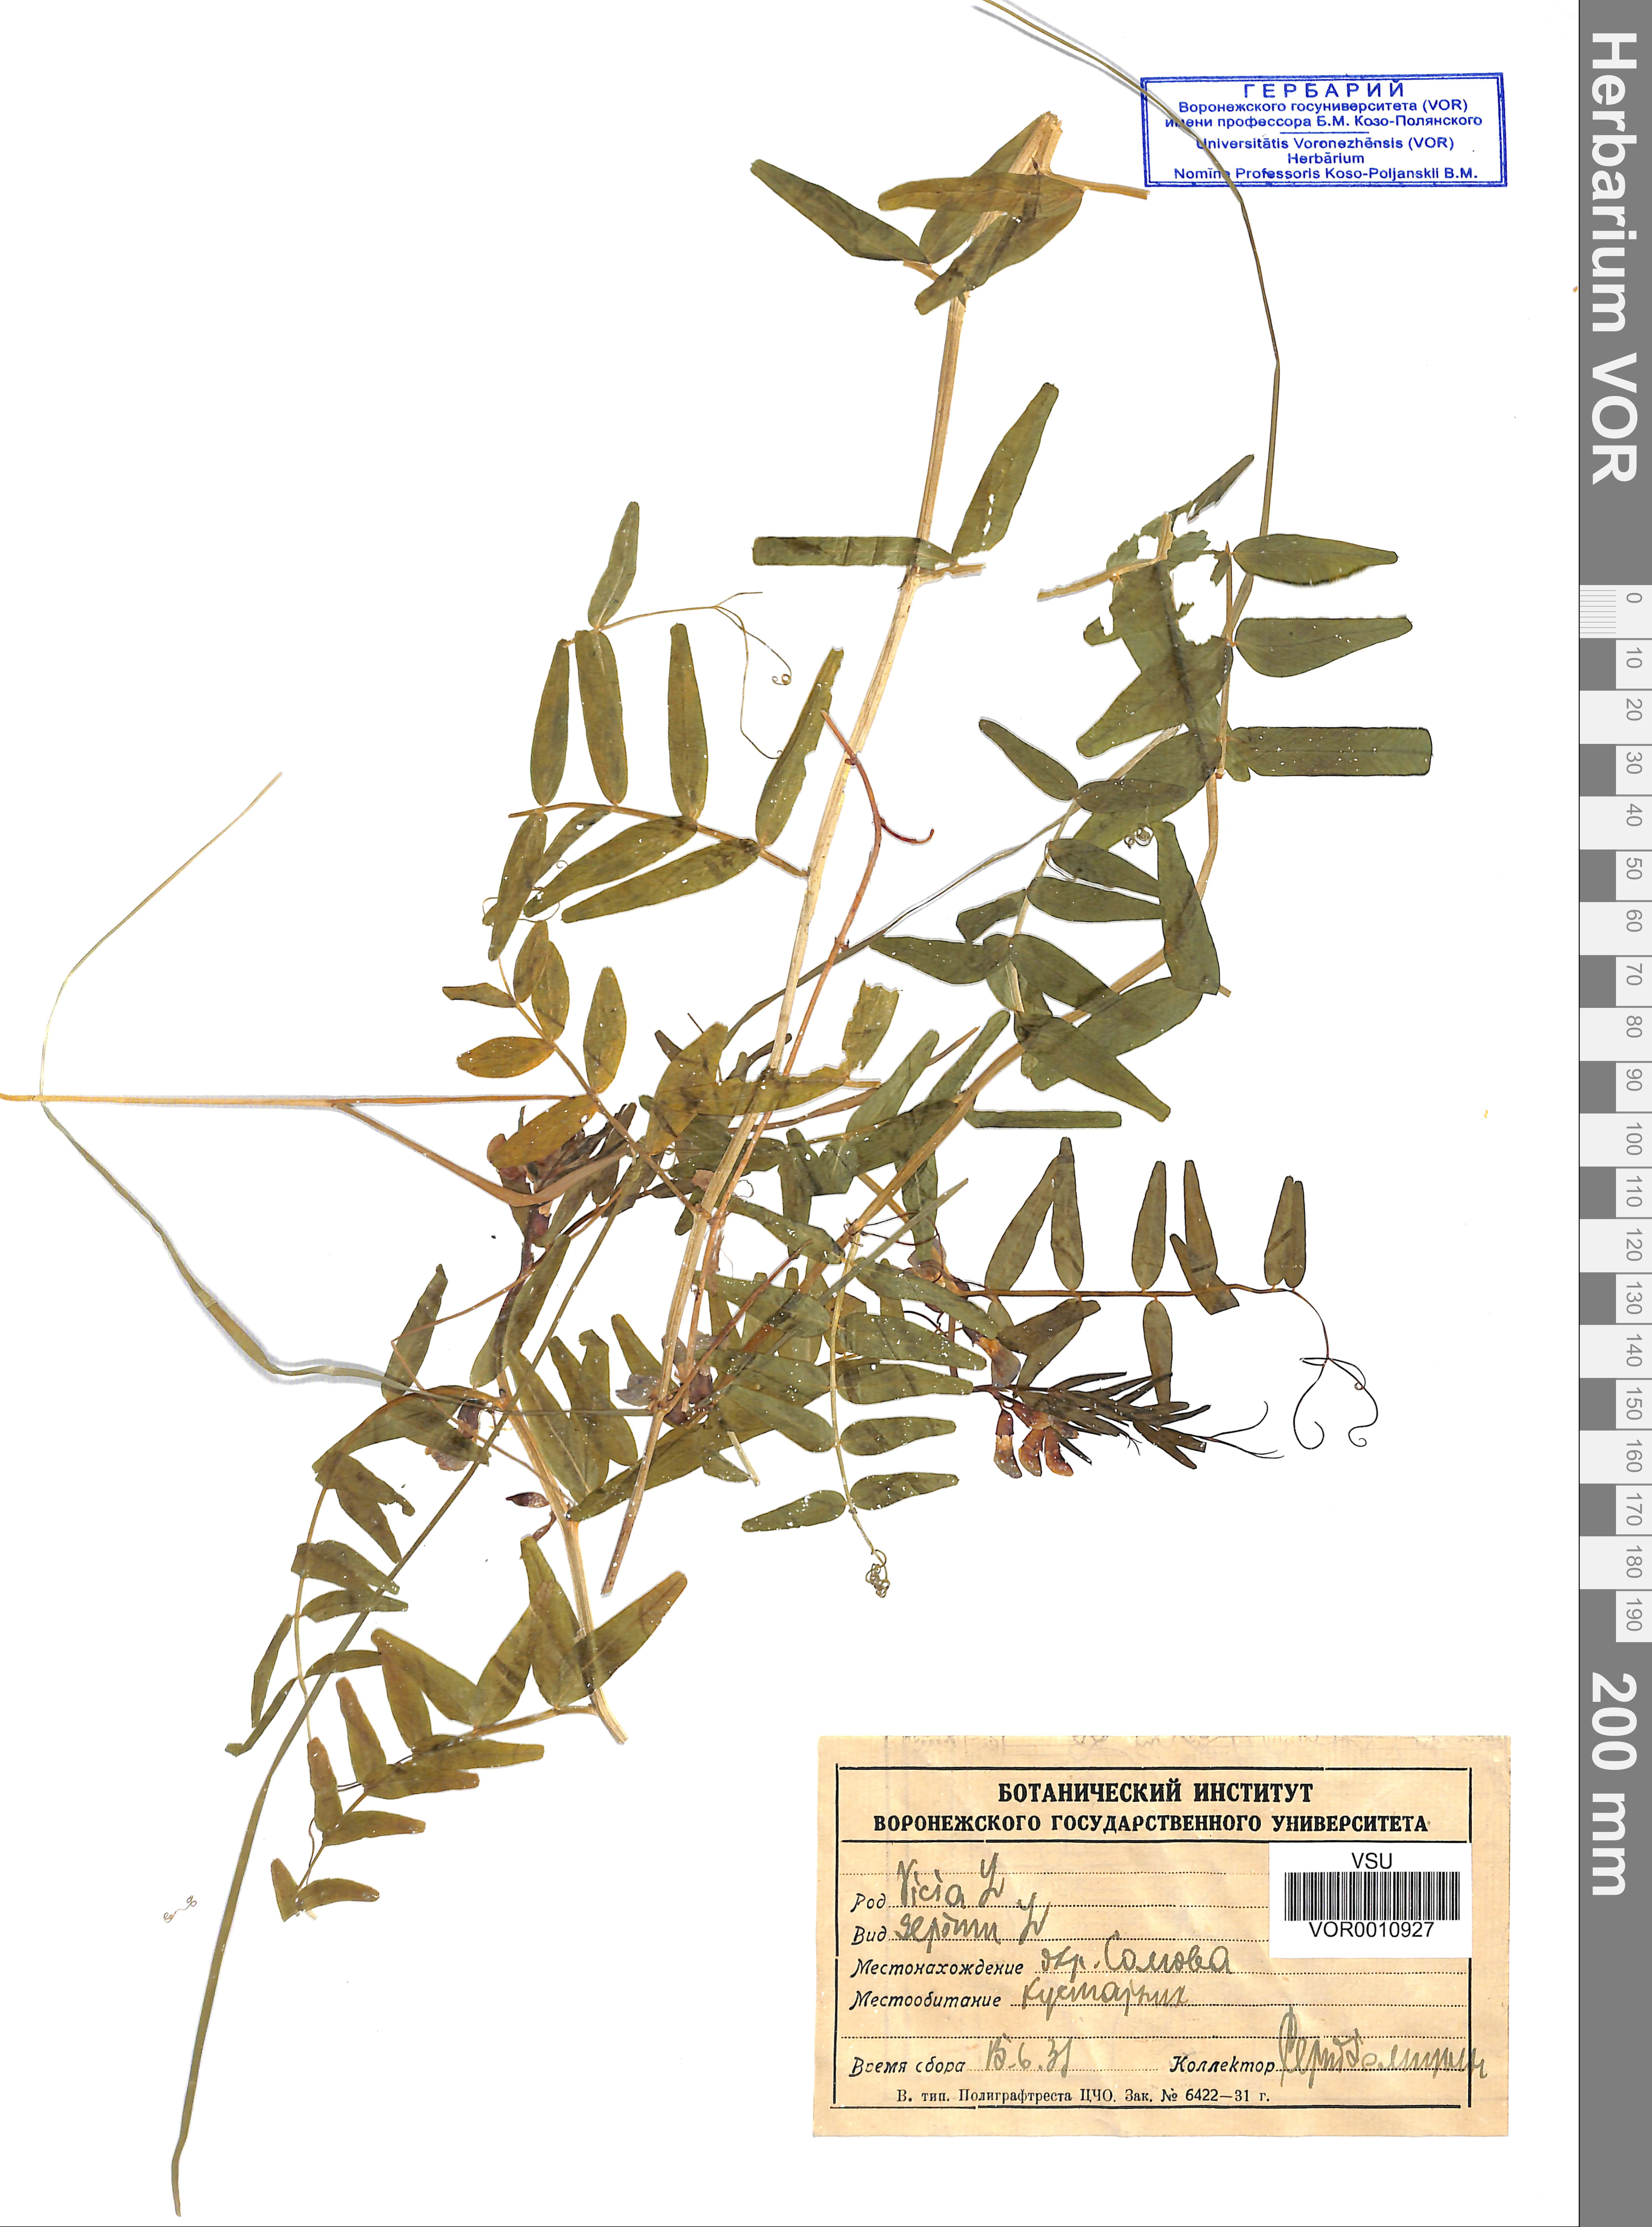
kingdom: Plantae
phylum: Tracheophyta
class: Magnoliopsida
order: Fabales
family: Fabaceae
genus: Vicia
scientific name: Vicia sepium
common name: Bush vetch
